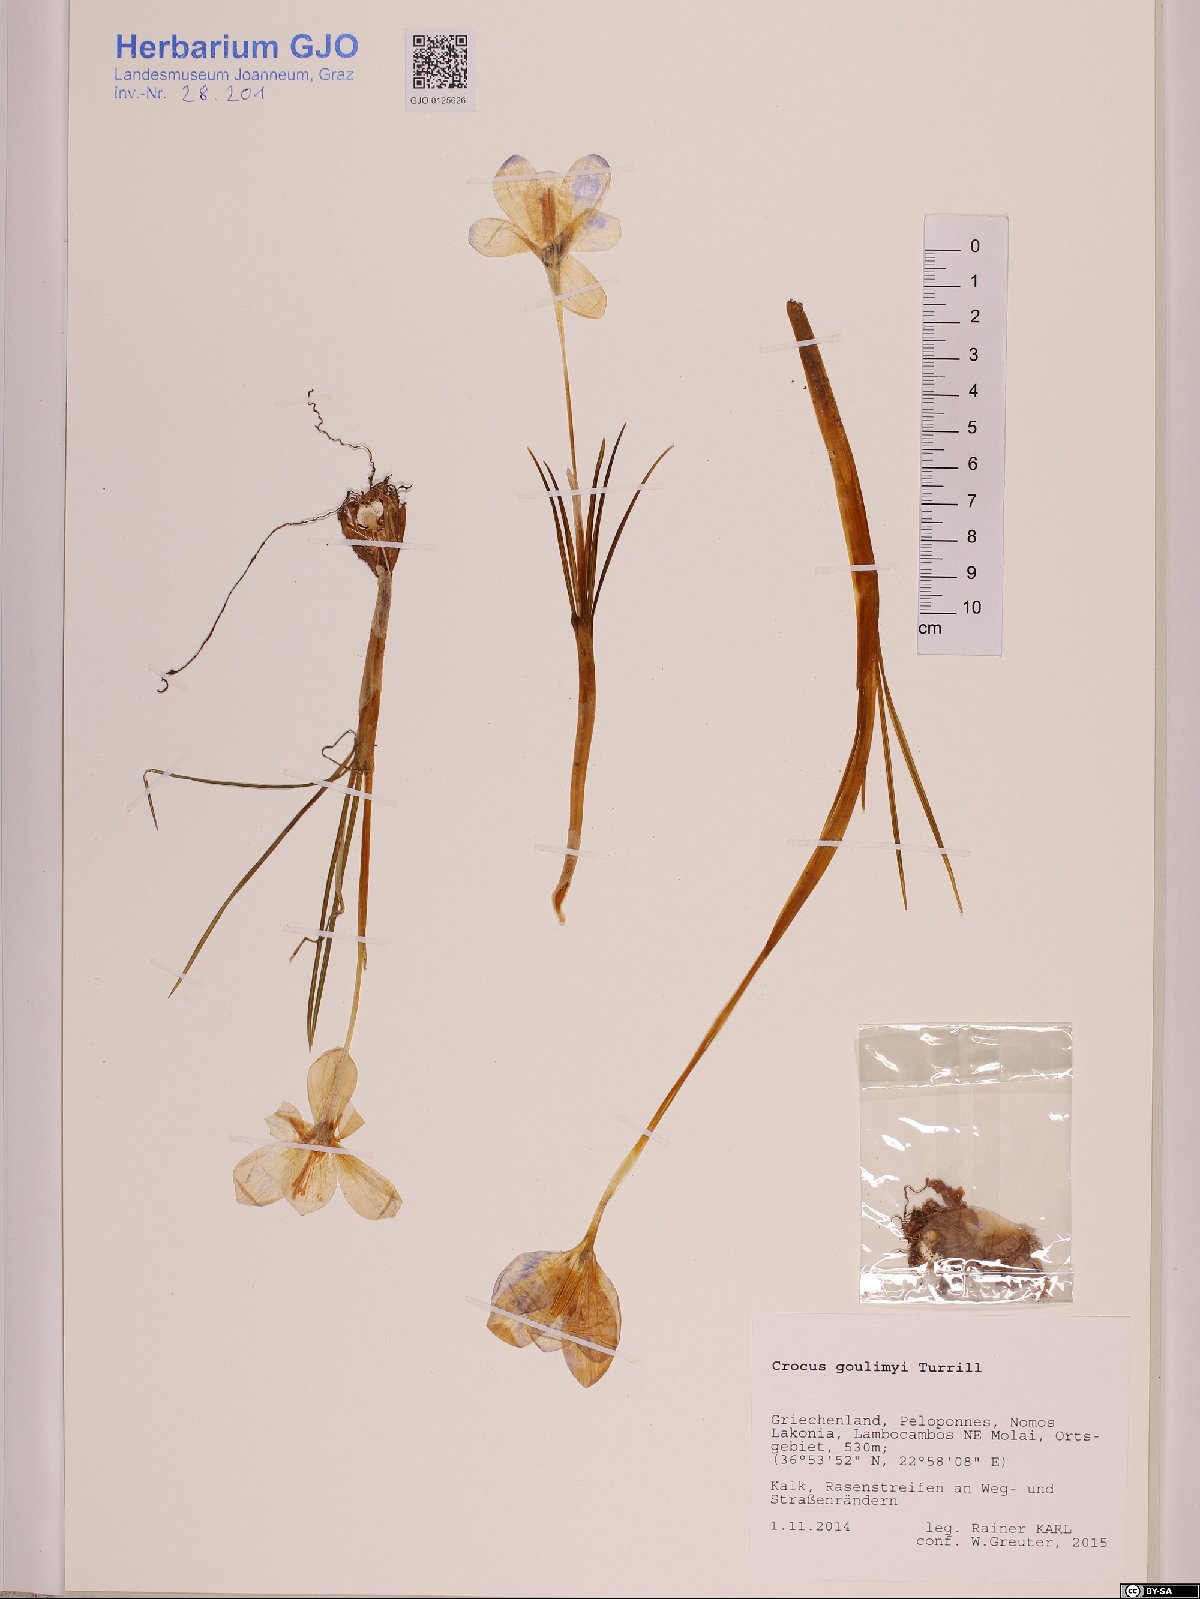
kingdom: Plantae
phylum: Tracheophyta
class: Liliopsida
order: Asparagales
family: Iridaceae
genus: Crocus
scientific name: Crocus goulimyi
